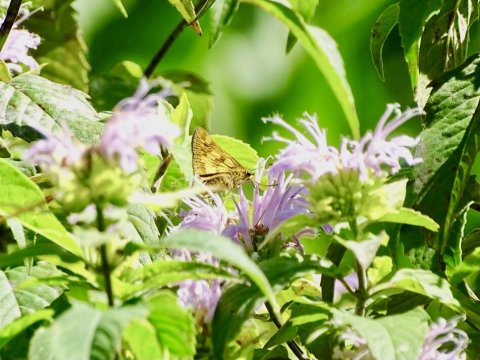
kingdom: Animalia
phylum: Arthropoda
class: Insecta
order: Lepidoptera
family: Hesperiidae
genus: Polites
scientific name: Polites coras
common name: Peck's Skipper
